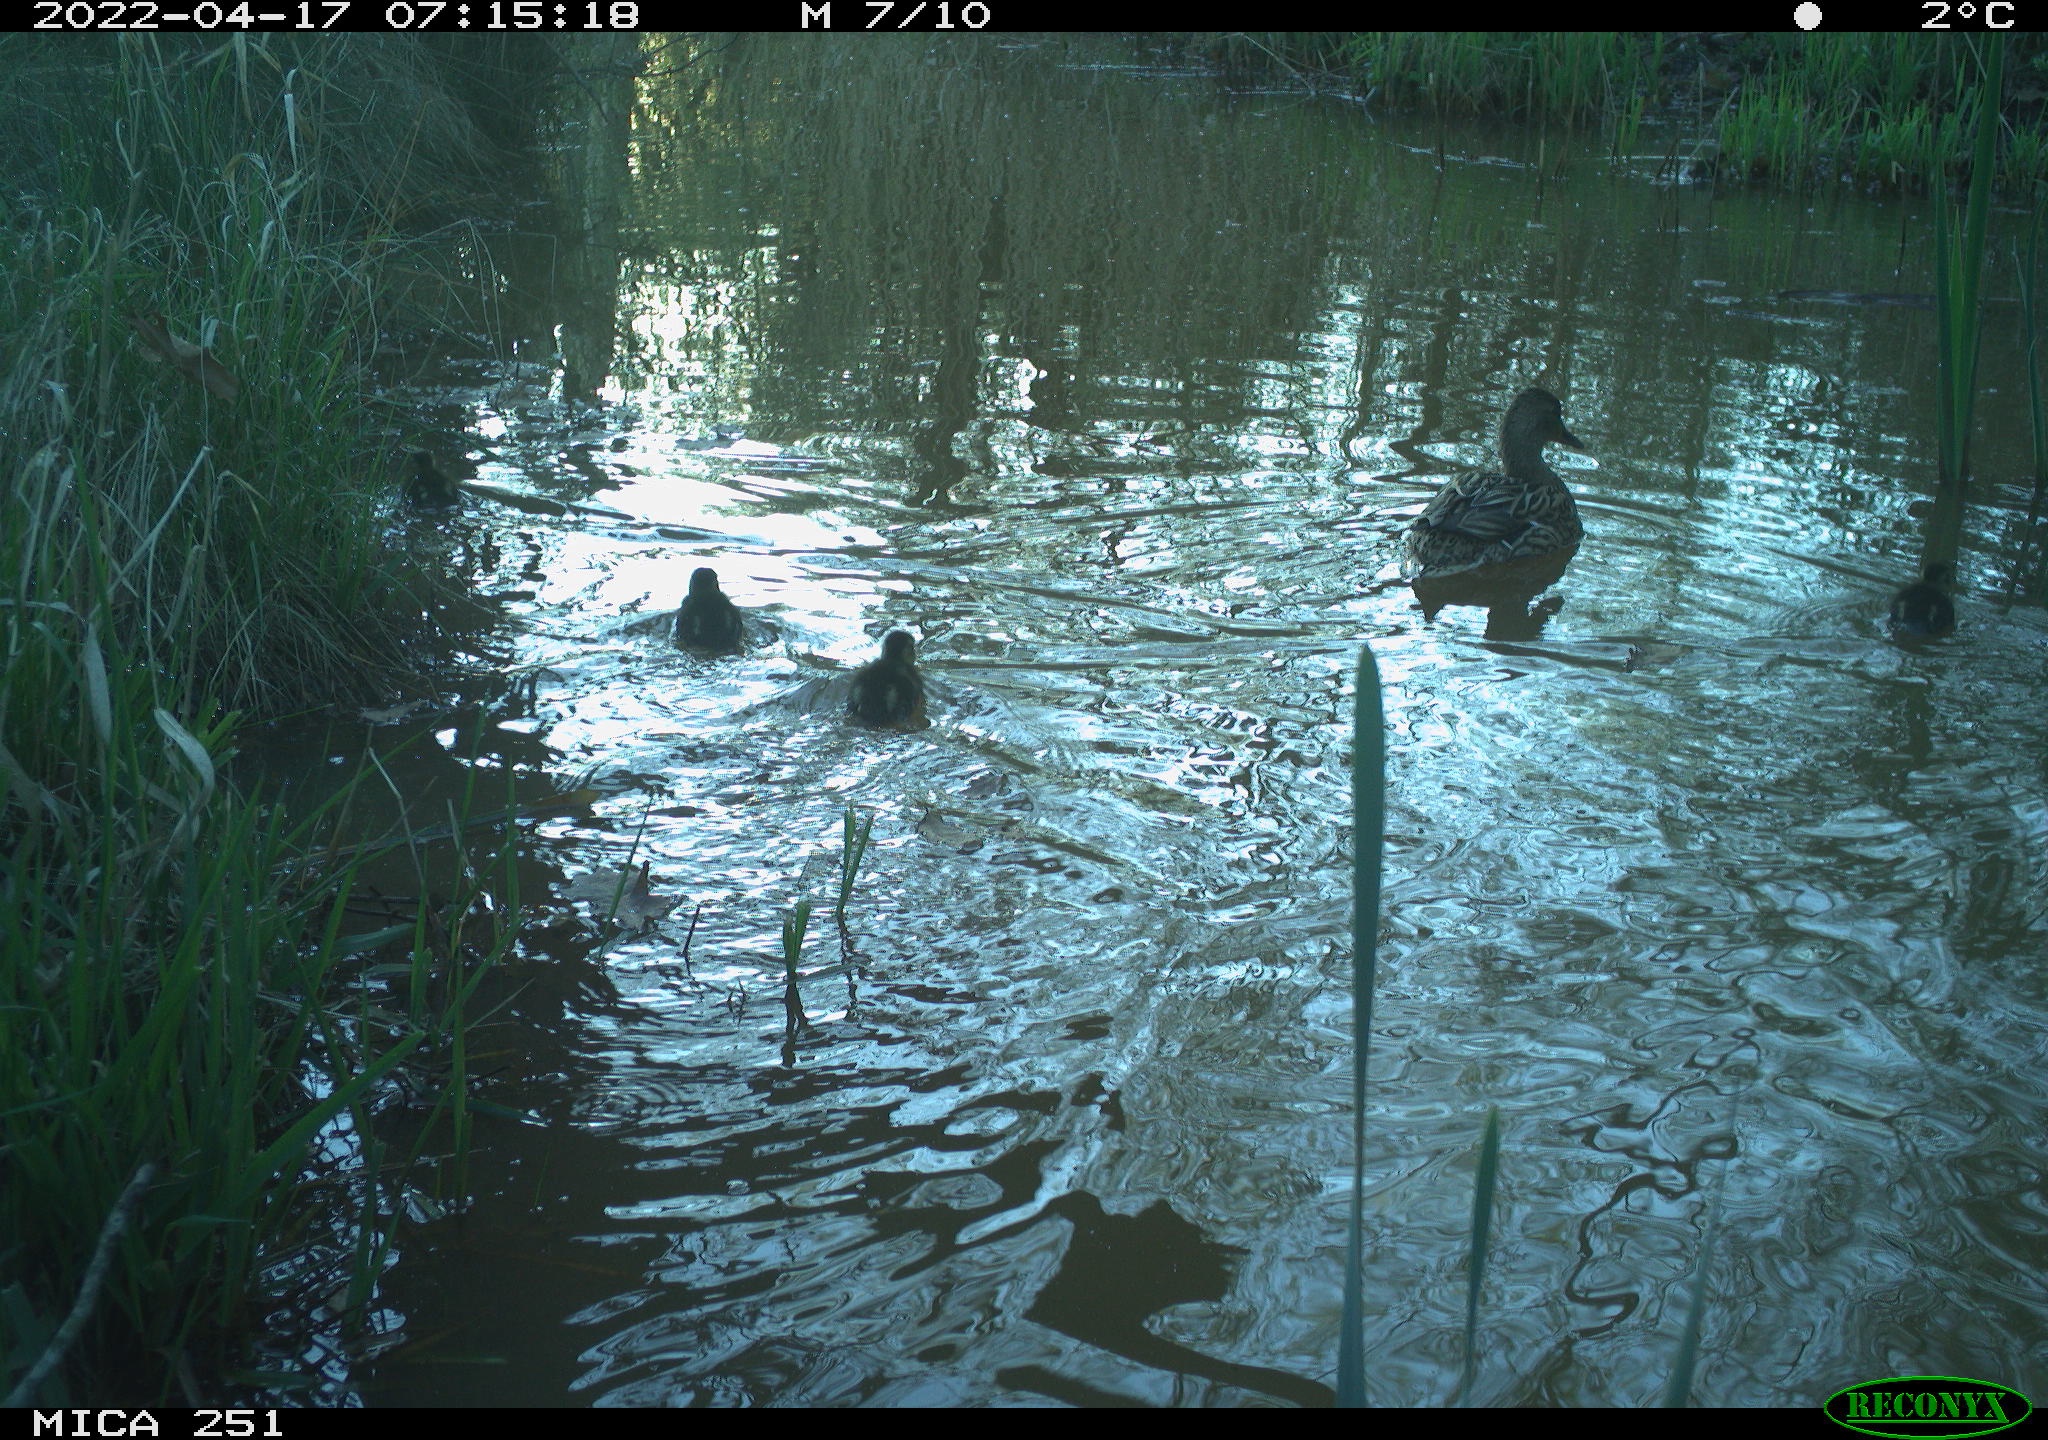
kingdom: Animalia
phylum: Chordata
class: Aves
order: Anseriformes
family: Anatidae
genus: Mareca
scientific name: Mareca strepera
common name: Gadwall
